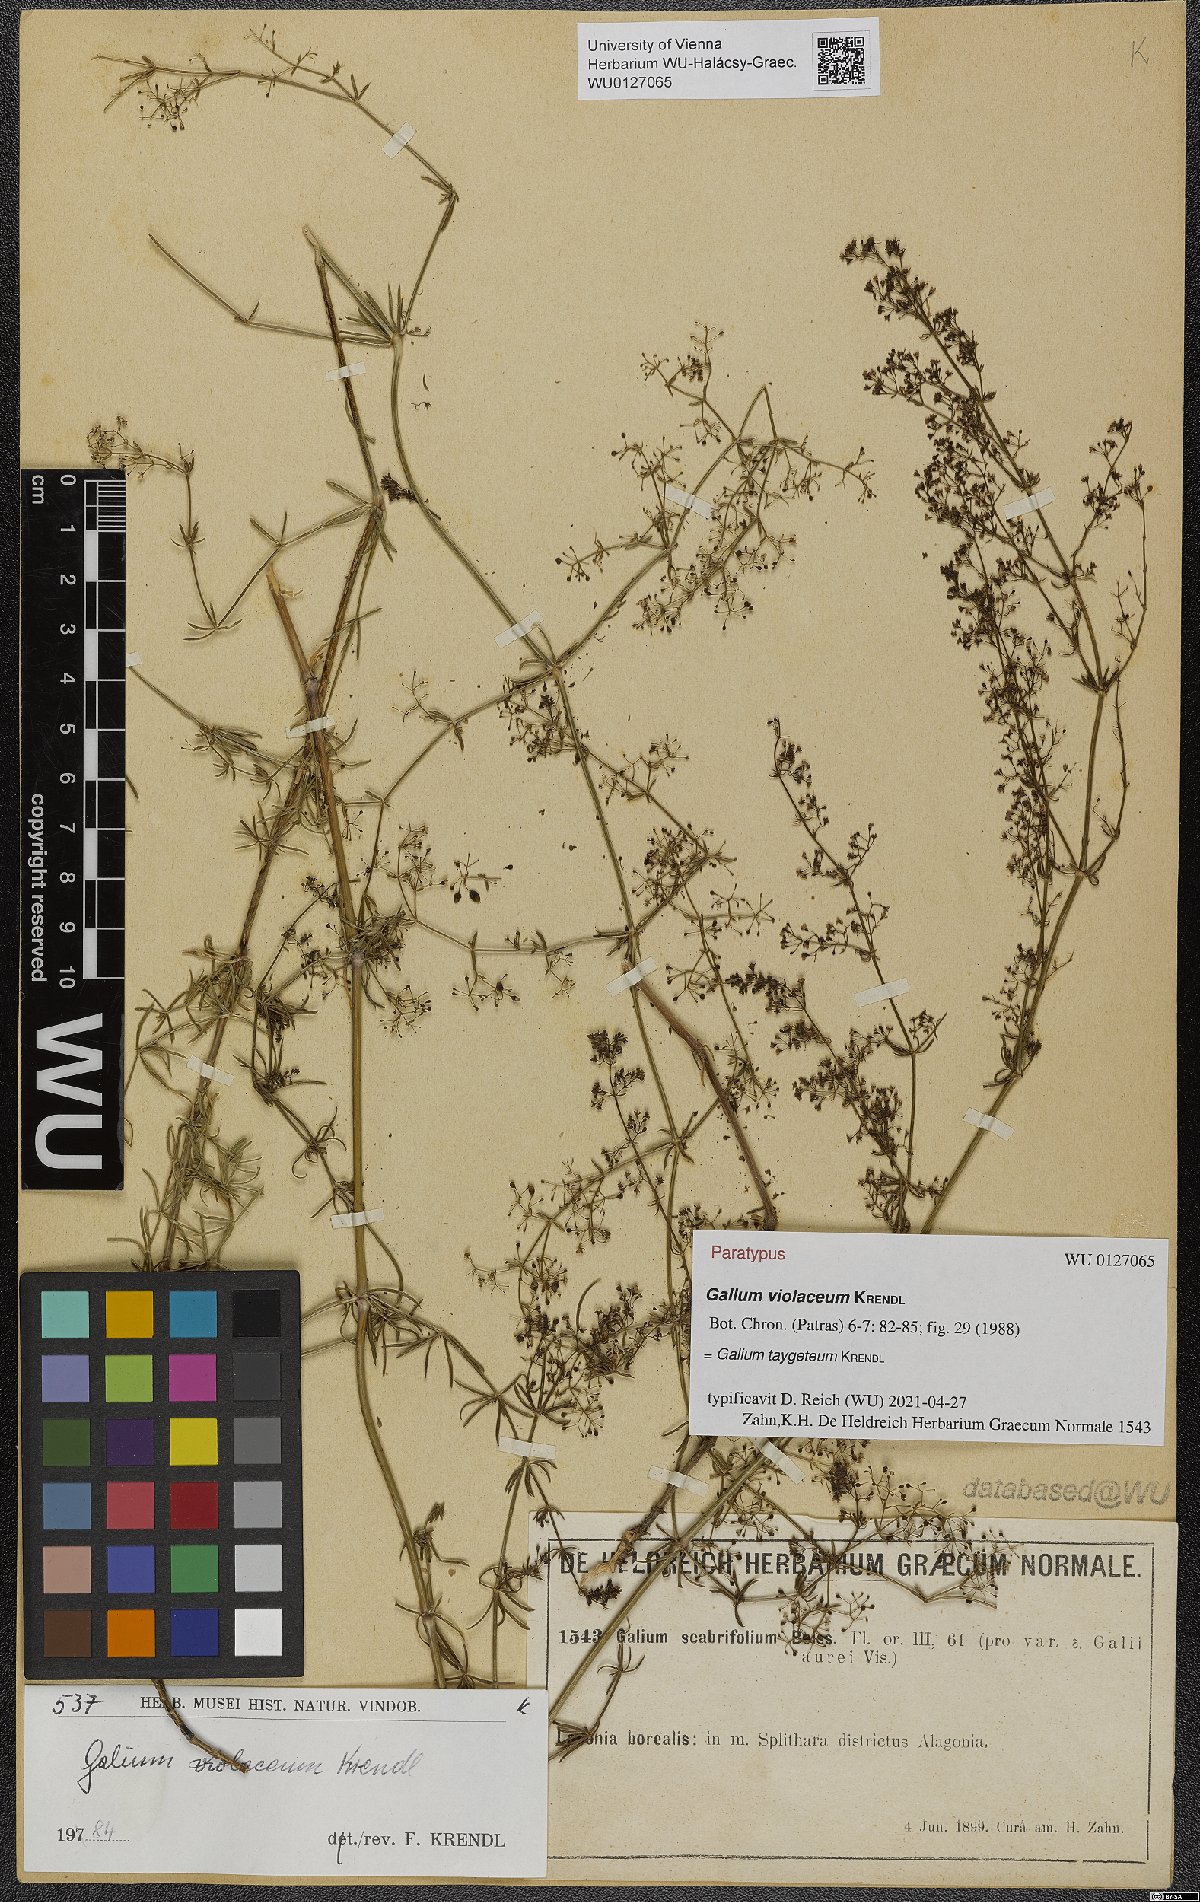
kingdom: Plantae
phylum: Tracheophyta
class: Magnoliopsida
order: Gentianales
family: Rubiaceae
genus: Galium
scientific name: Galium taygeteum
